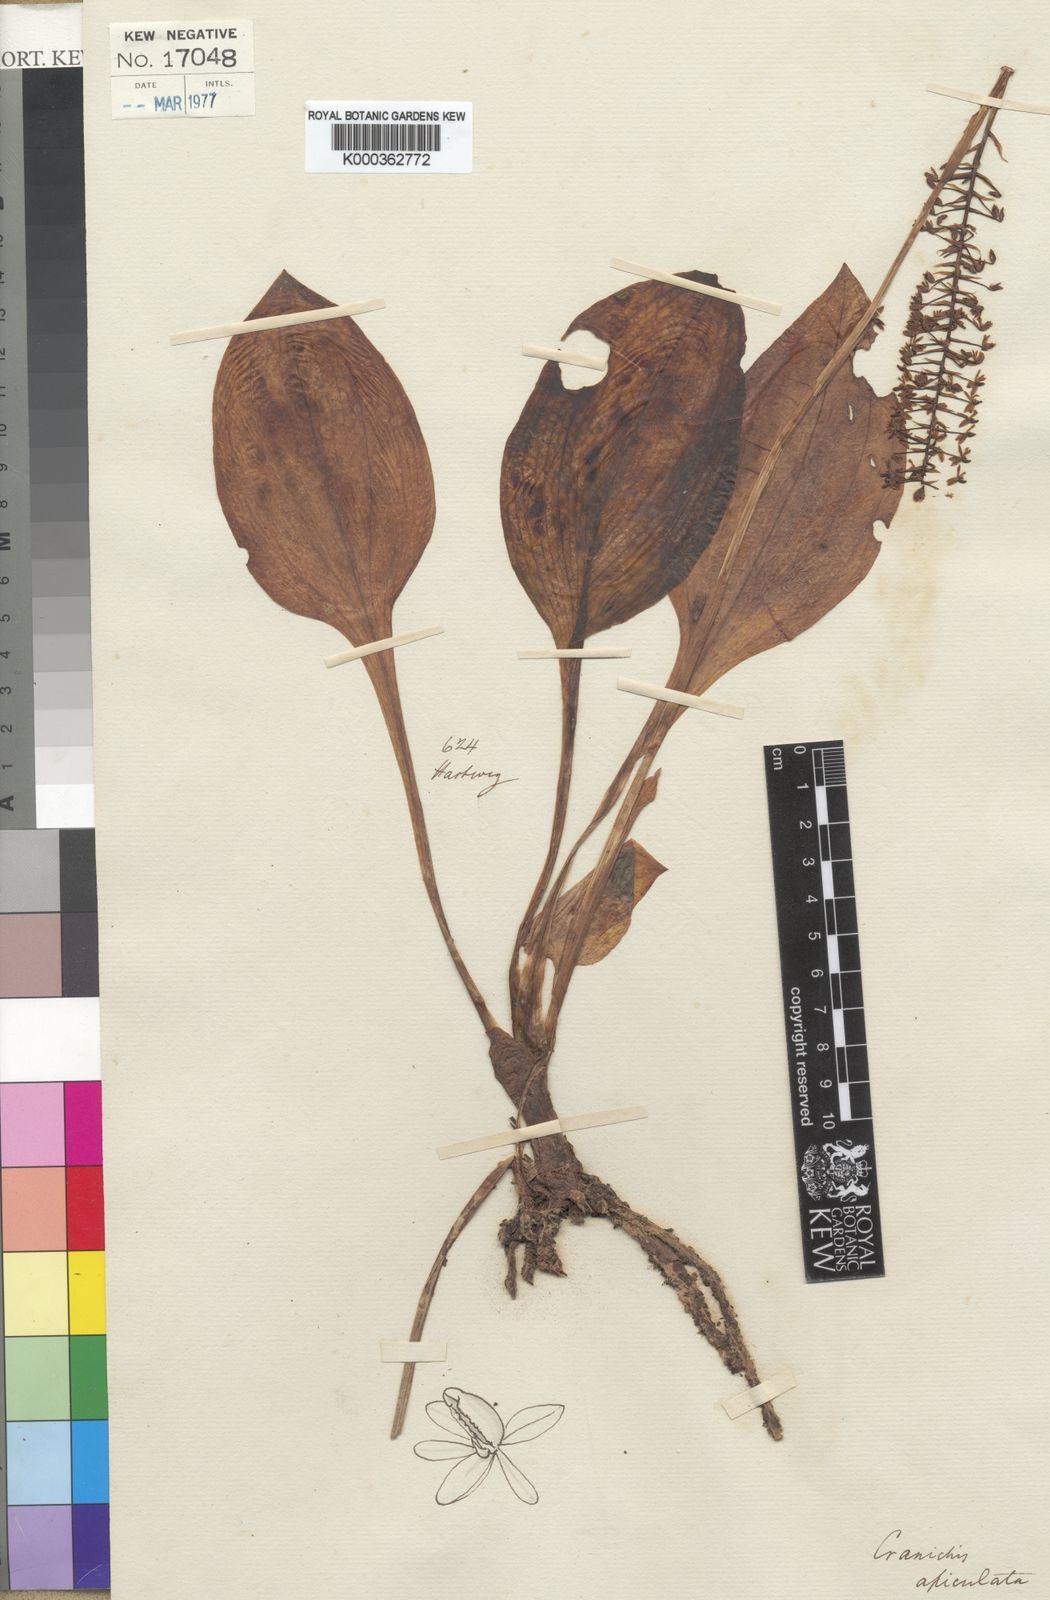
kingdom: Plantae
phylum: Tracheophyta
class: Liliopsida
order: Asparagales
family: Orchidaceae
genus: Cranichis
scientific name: Cranichis apiculata
